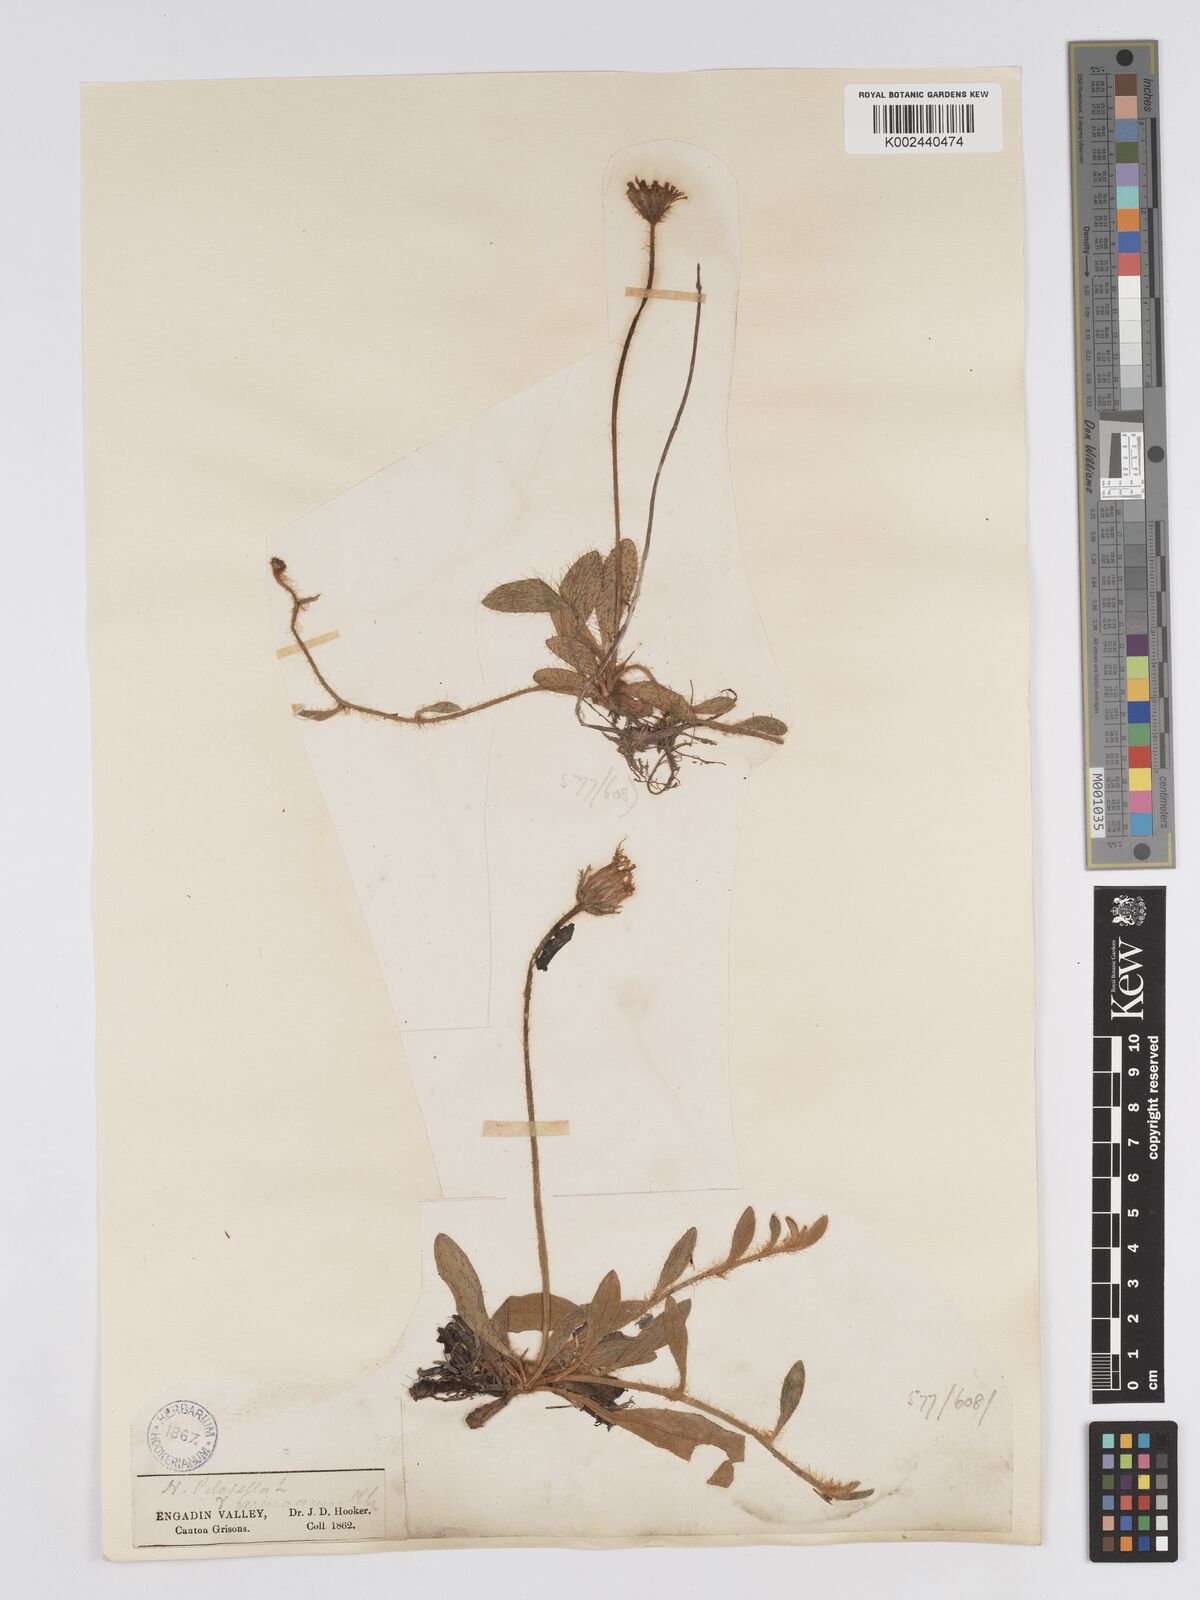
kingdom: Plantae
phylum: Tracheophyta
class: Magnoliopsida
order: Asterales
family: Asteraceae
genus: Pilosella
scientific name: Pilosella velutina
